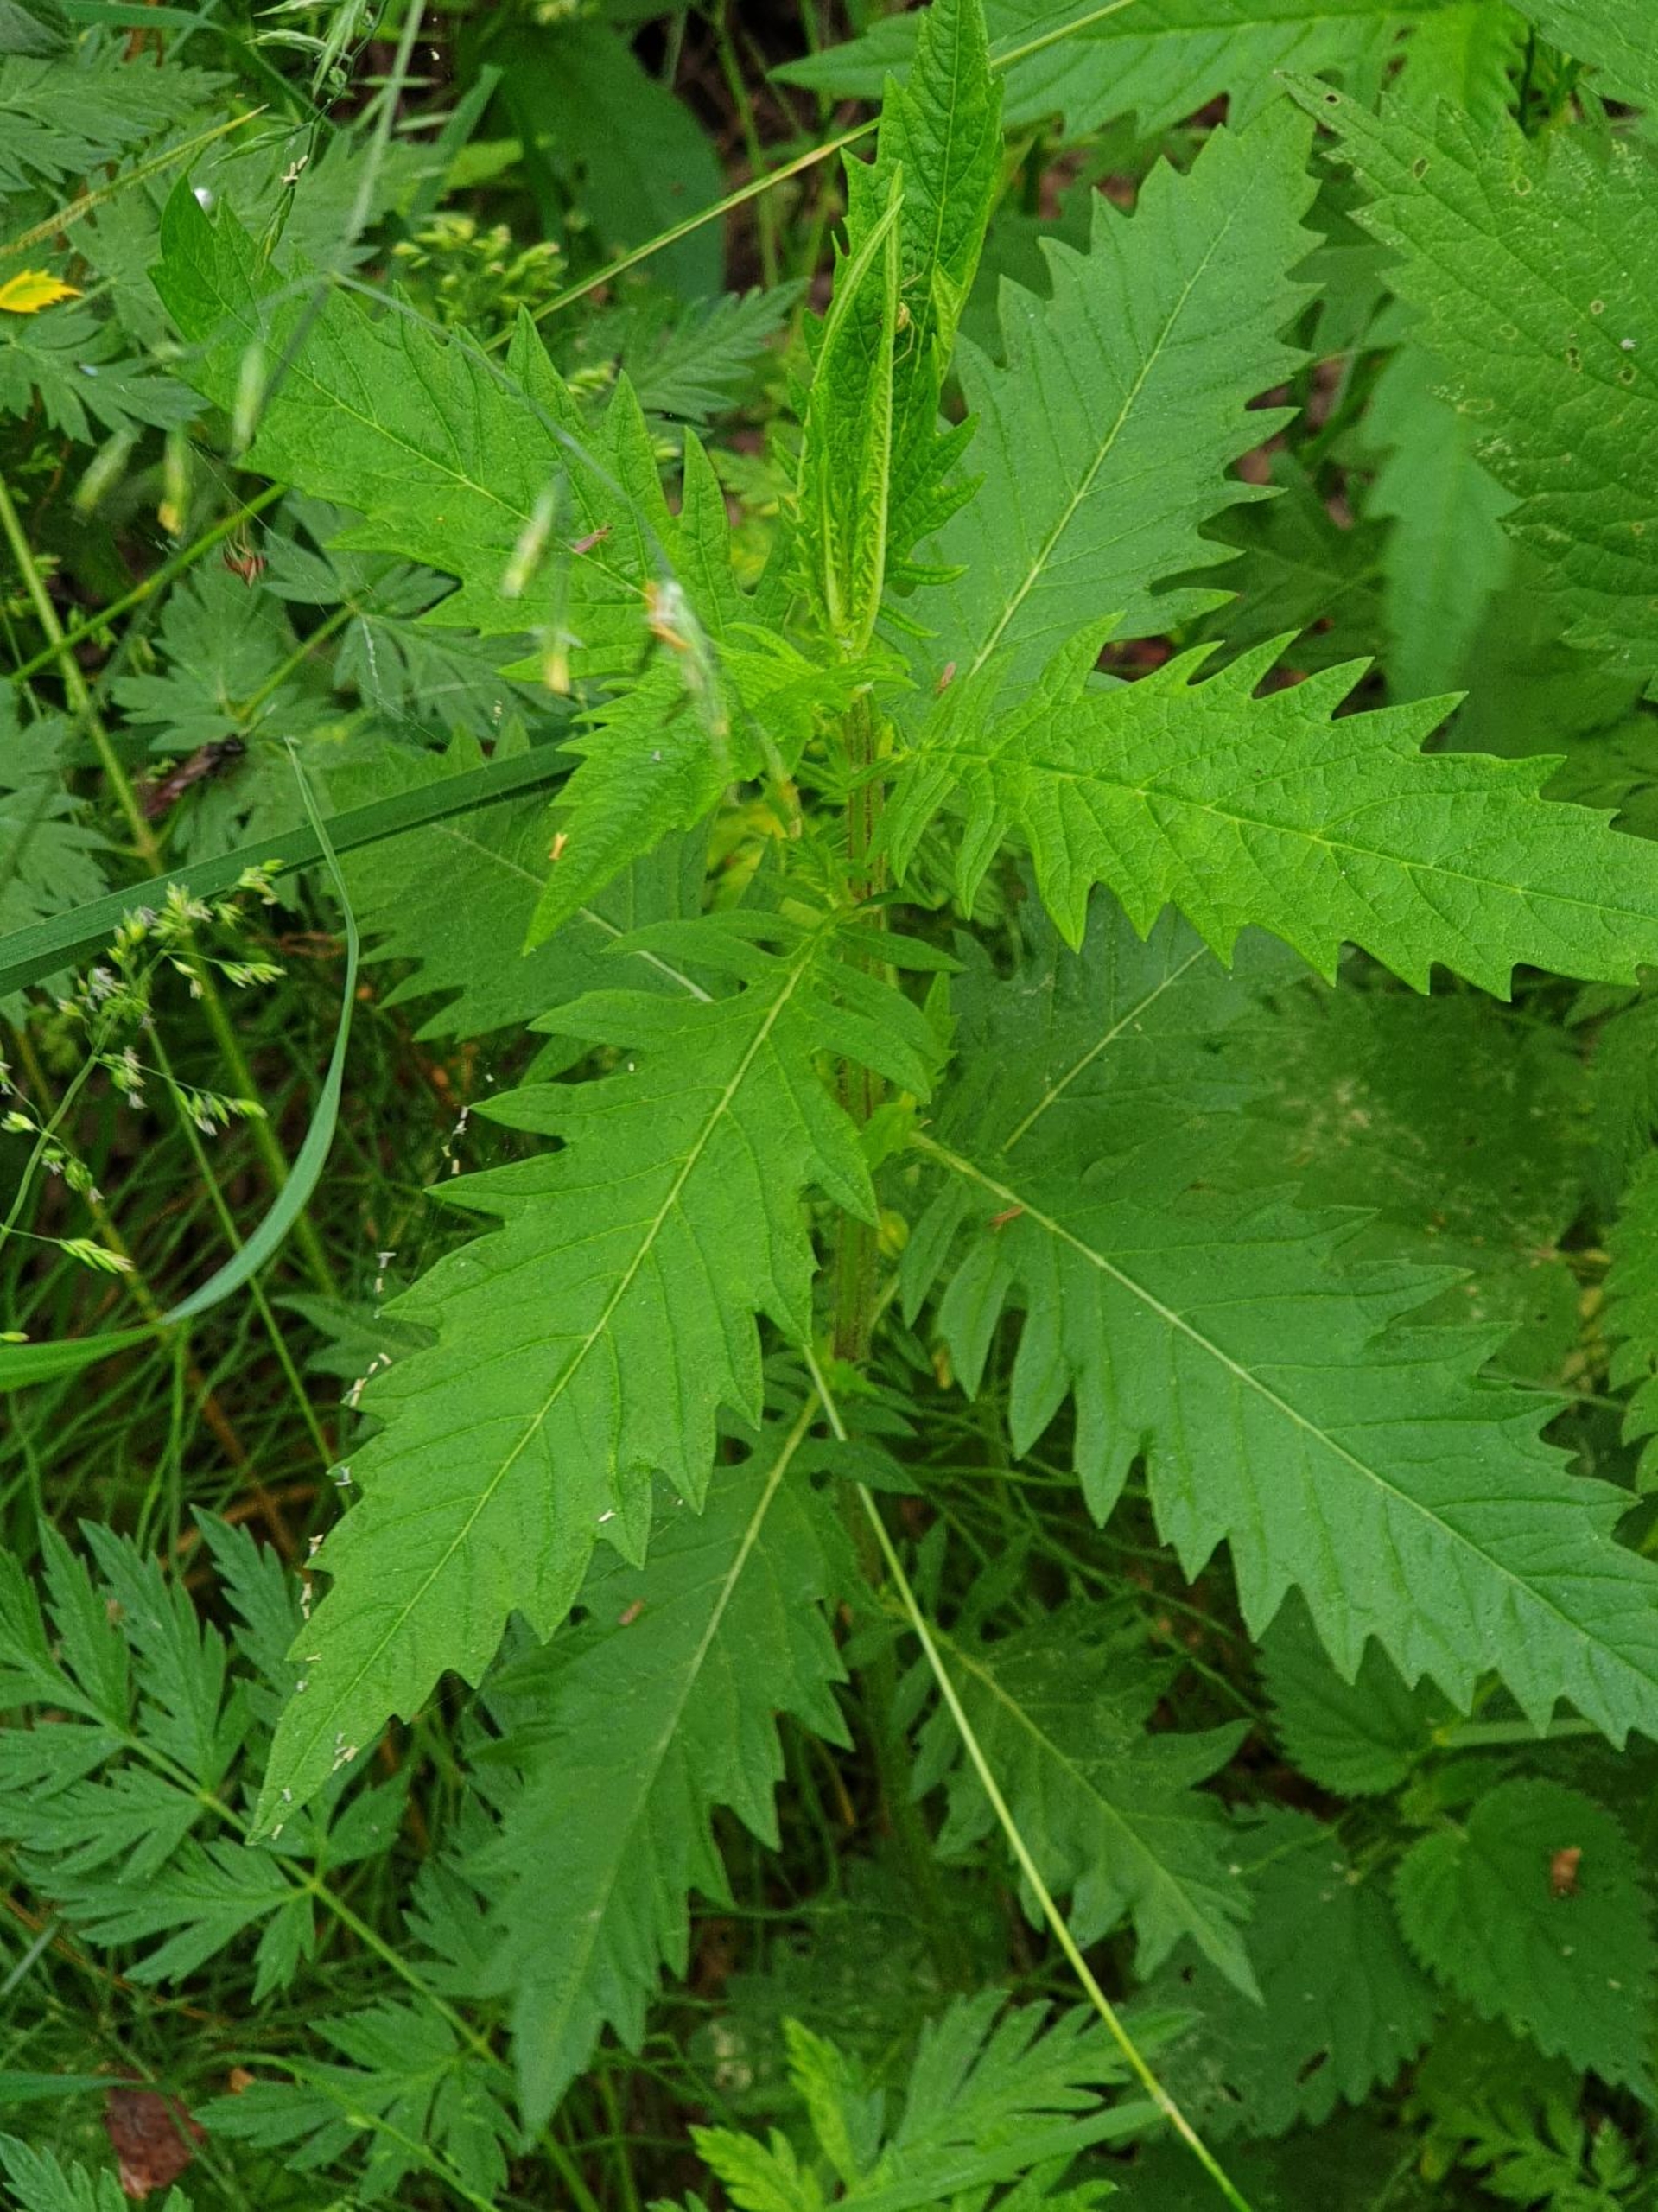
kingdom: Plantae
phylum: Tracheophyta
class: Magnoliopsida
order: Lamiales
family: Lamiaceae
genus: Lycopus
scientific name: Lycopus europaeus
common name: Sværtevæld
